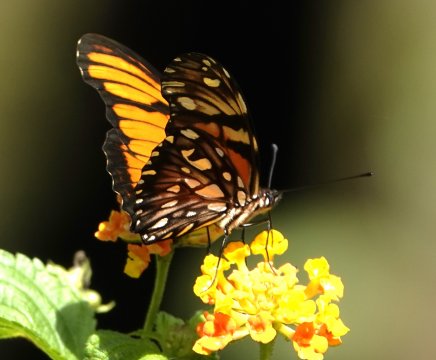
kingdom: Animalia
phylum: Arthropoda
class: Insecta
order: Lepidoptera
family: Nymphalidae
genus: Dione
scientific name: Dione juno
